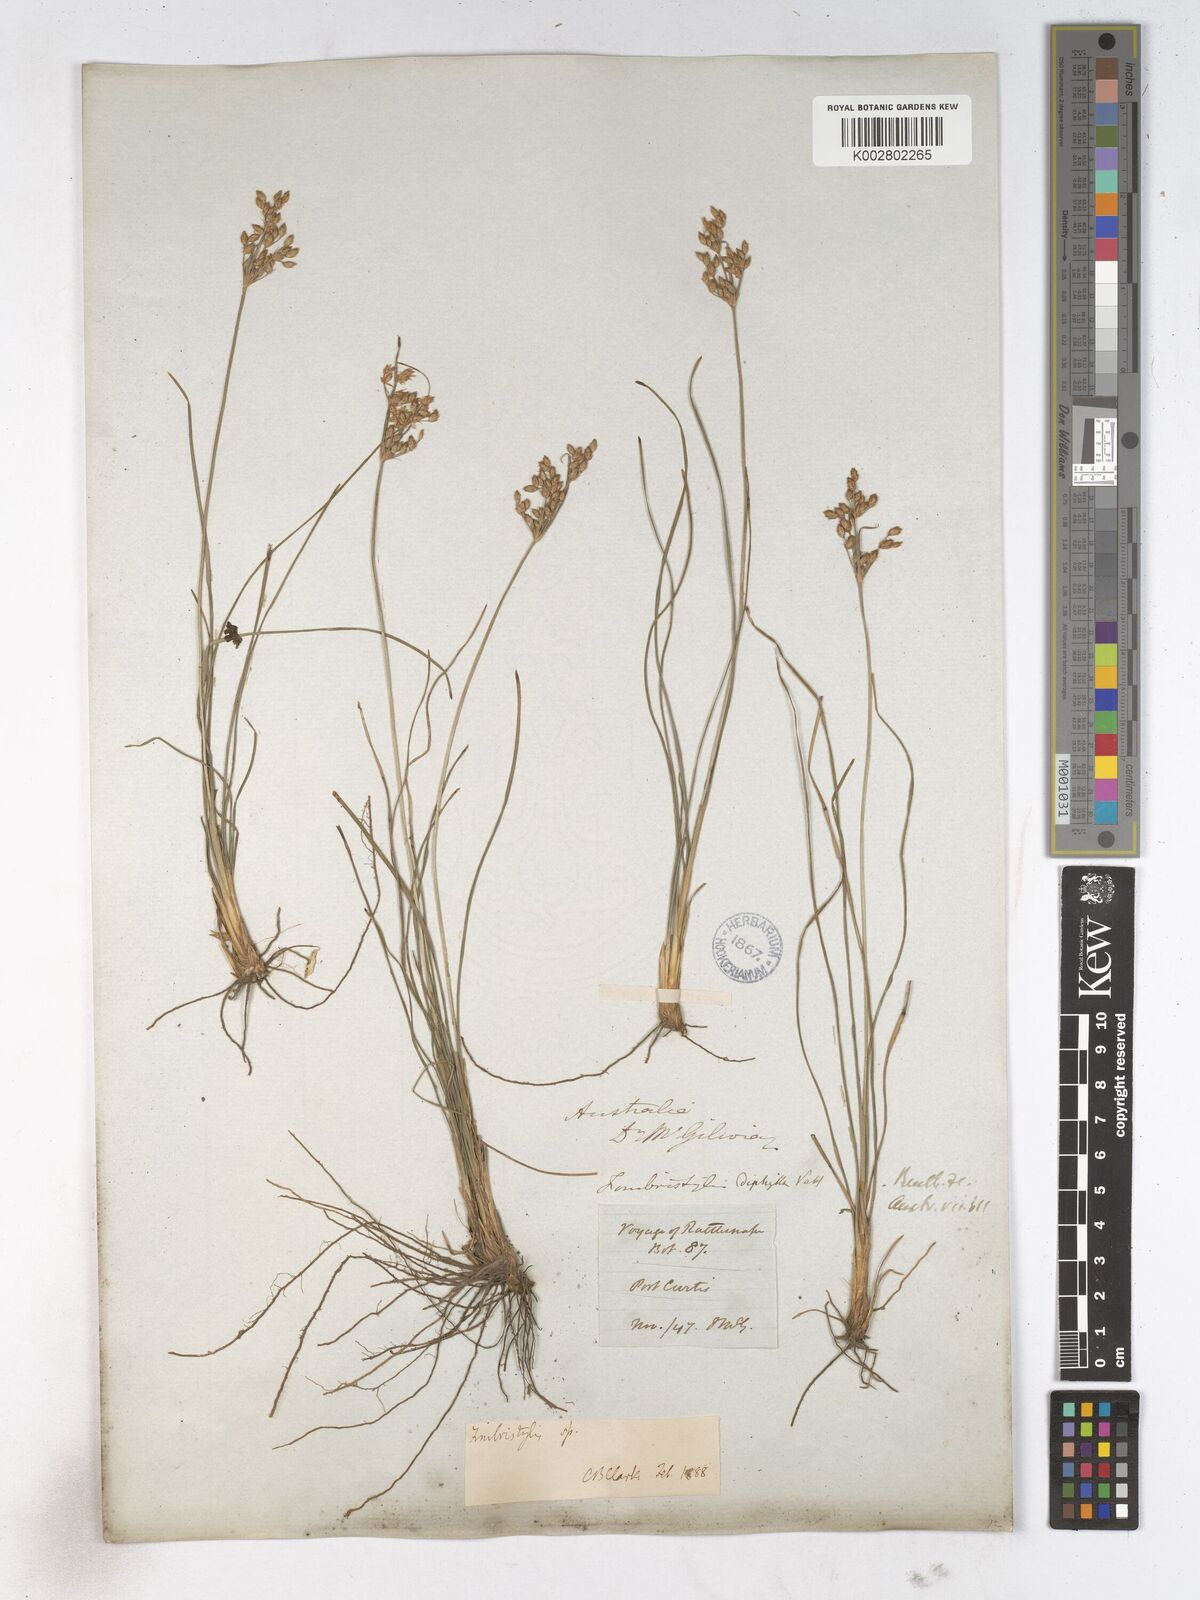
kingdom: Plantae
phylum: Tracheophyta
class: Liliopsida
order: Poales
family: Cyperaceae
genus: Fimbristylis
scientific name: Fimbristylis dichotoma
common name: Forked fimbry
